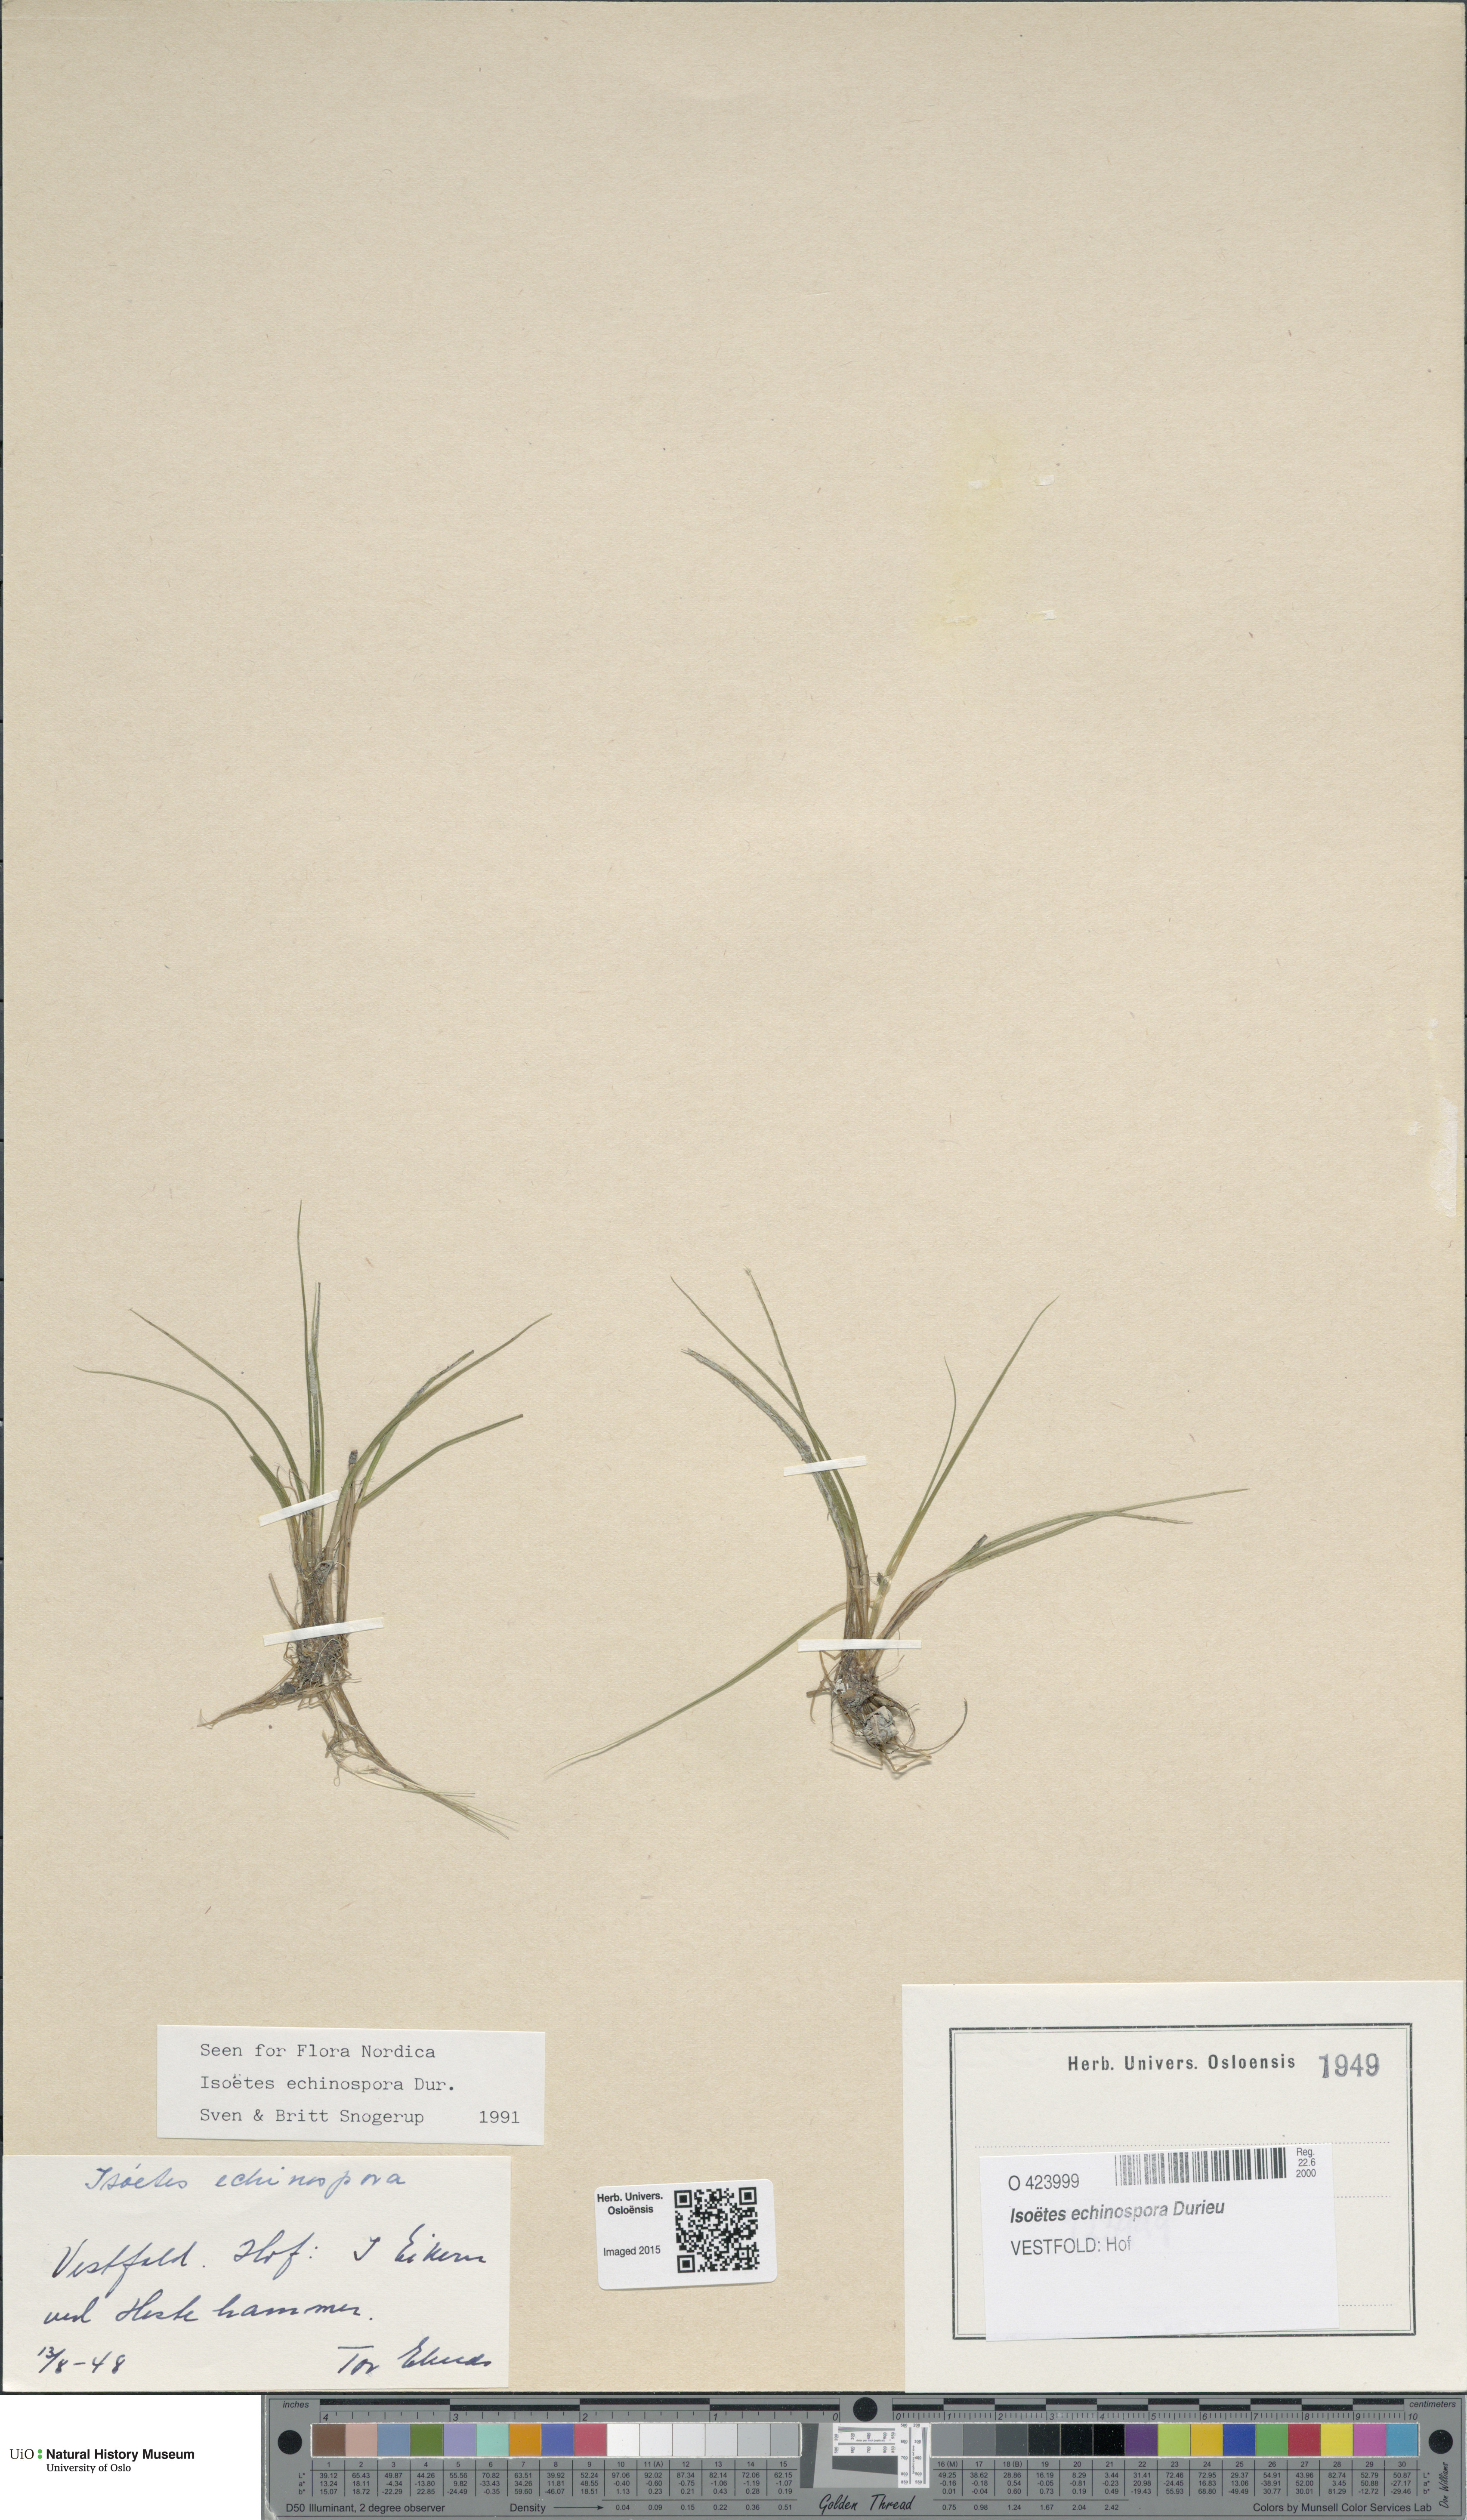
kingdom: Plantae
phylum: Tracheophyta
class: Lycopodiopsida
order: Isoetales
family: Isoetaceae
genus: Isoetes
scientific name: Isoetes echinospora
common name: Spring quillwort
